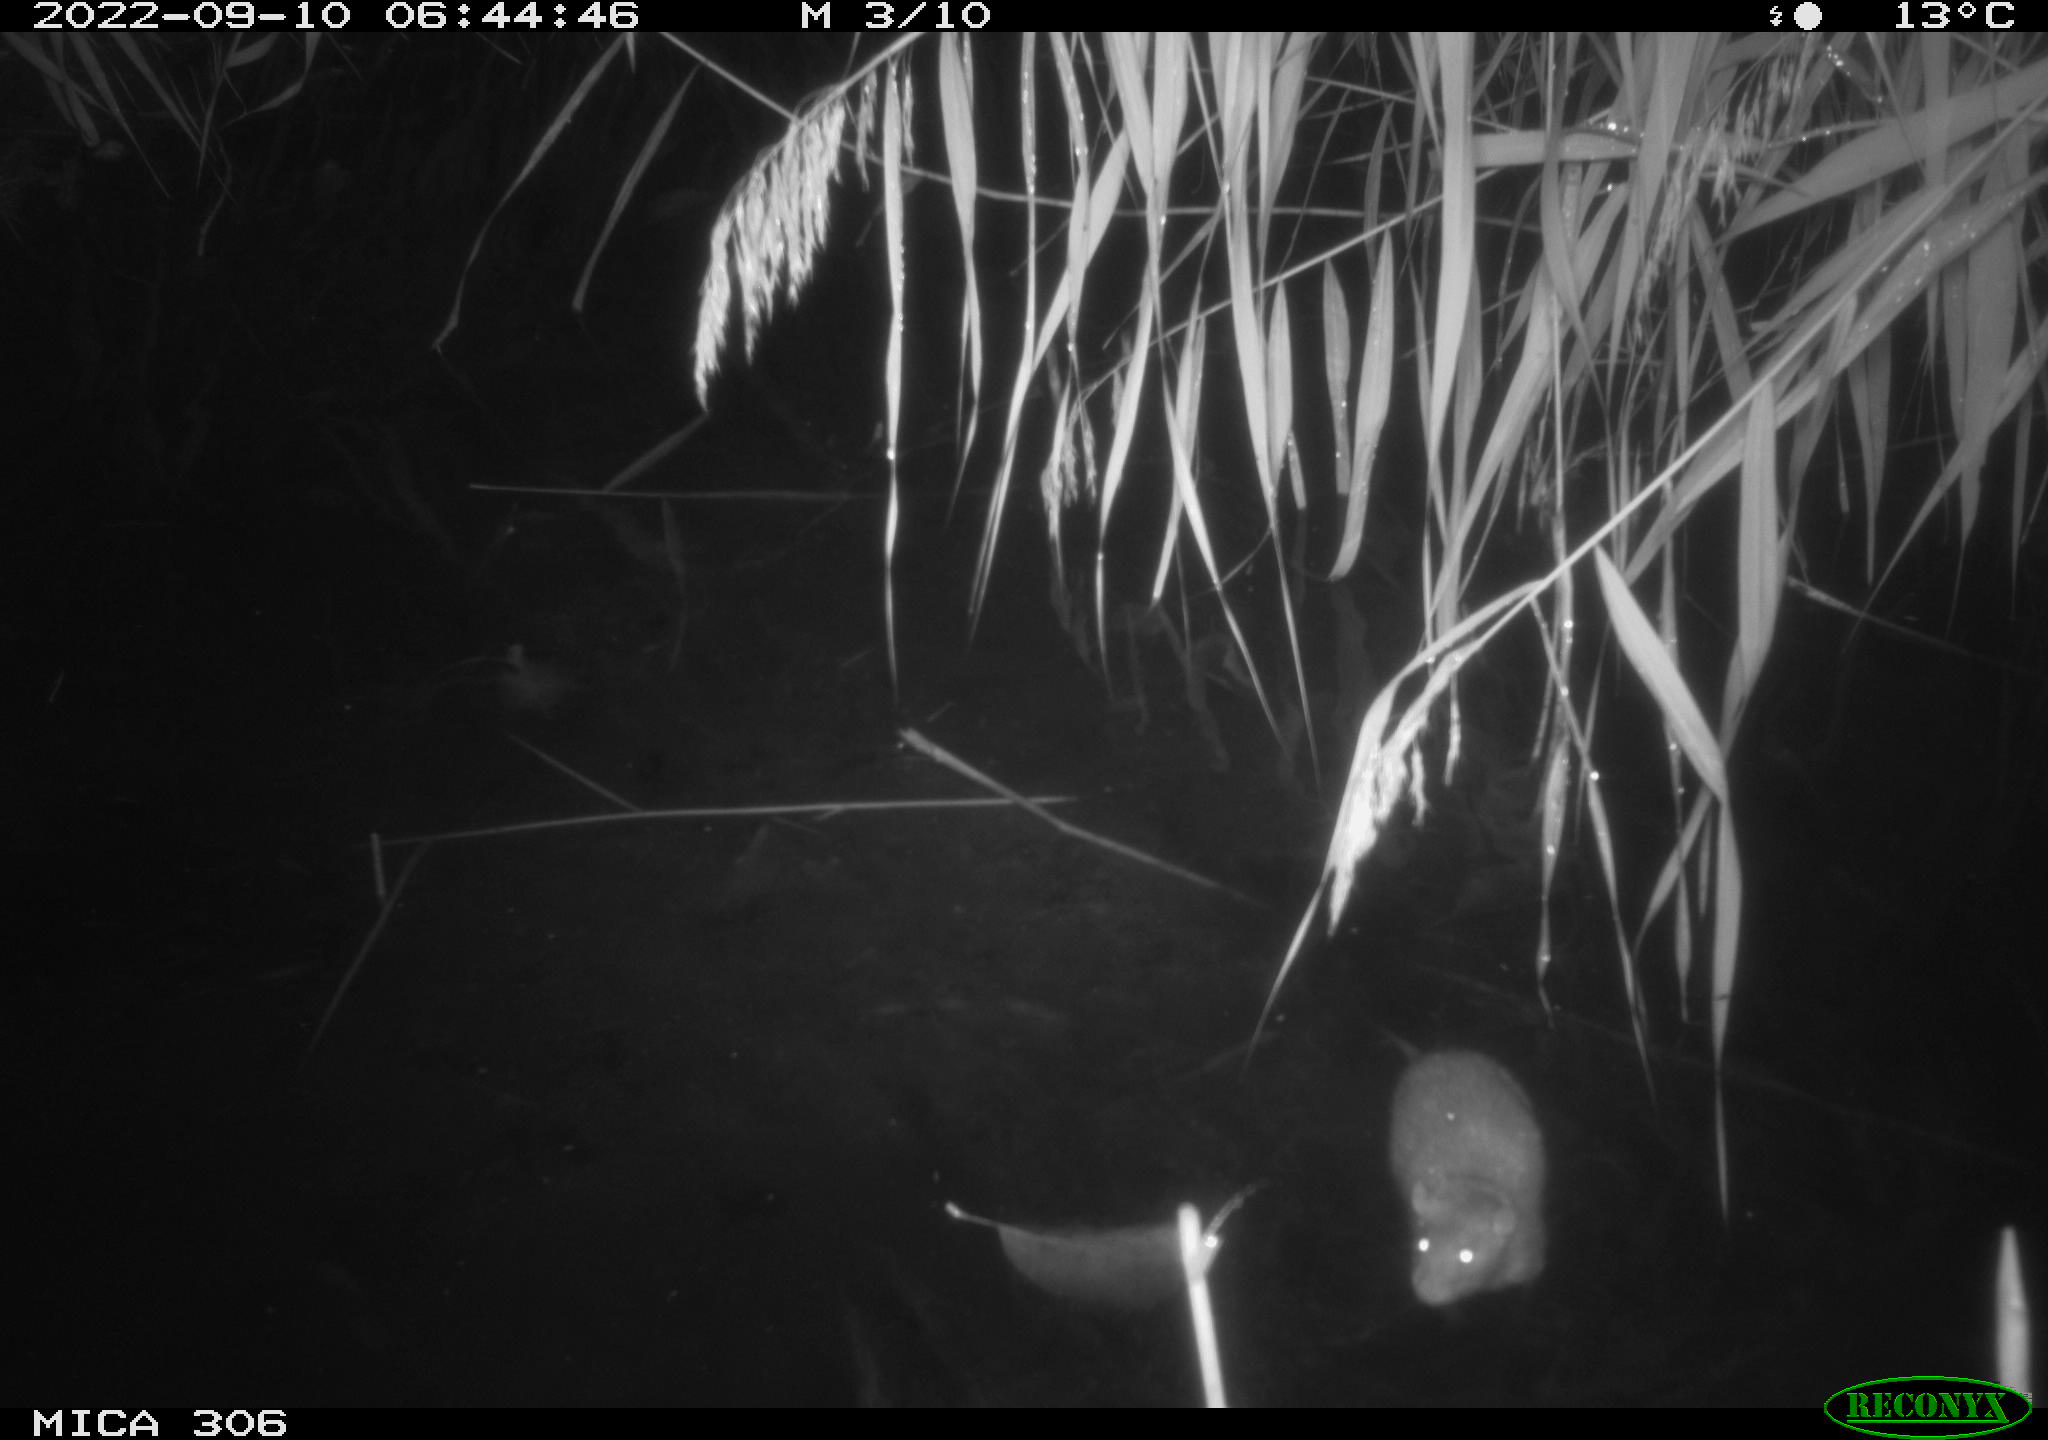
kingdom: Animalia
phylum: Chordata
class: Mammalia
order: Rodentia
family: Muridae
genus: Rattus
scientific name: Rattus norvegicus
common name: Brown rat
